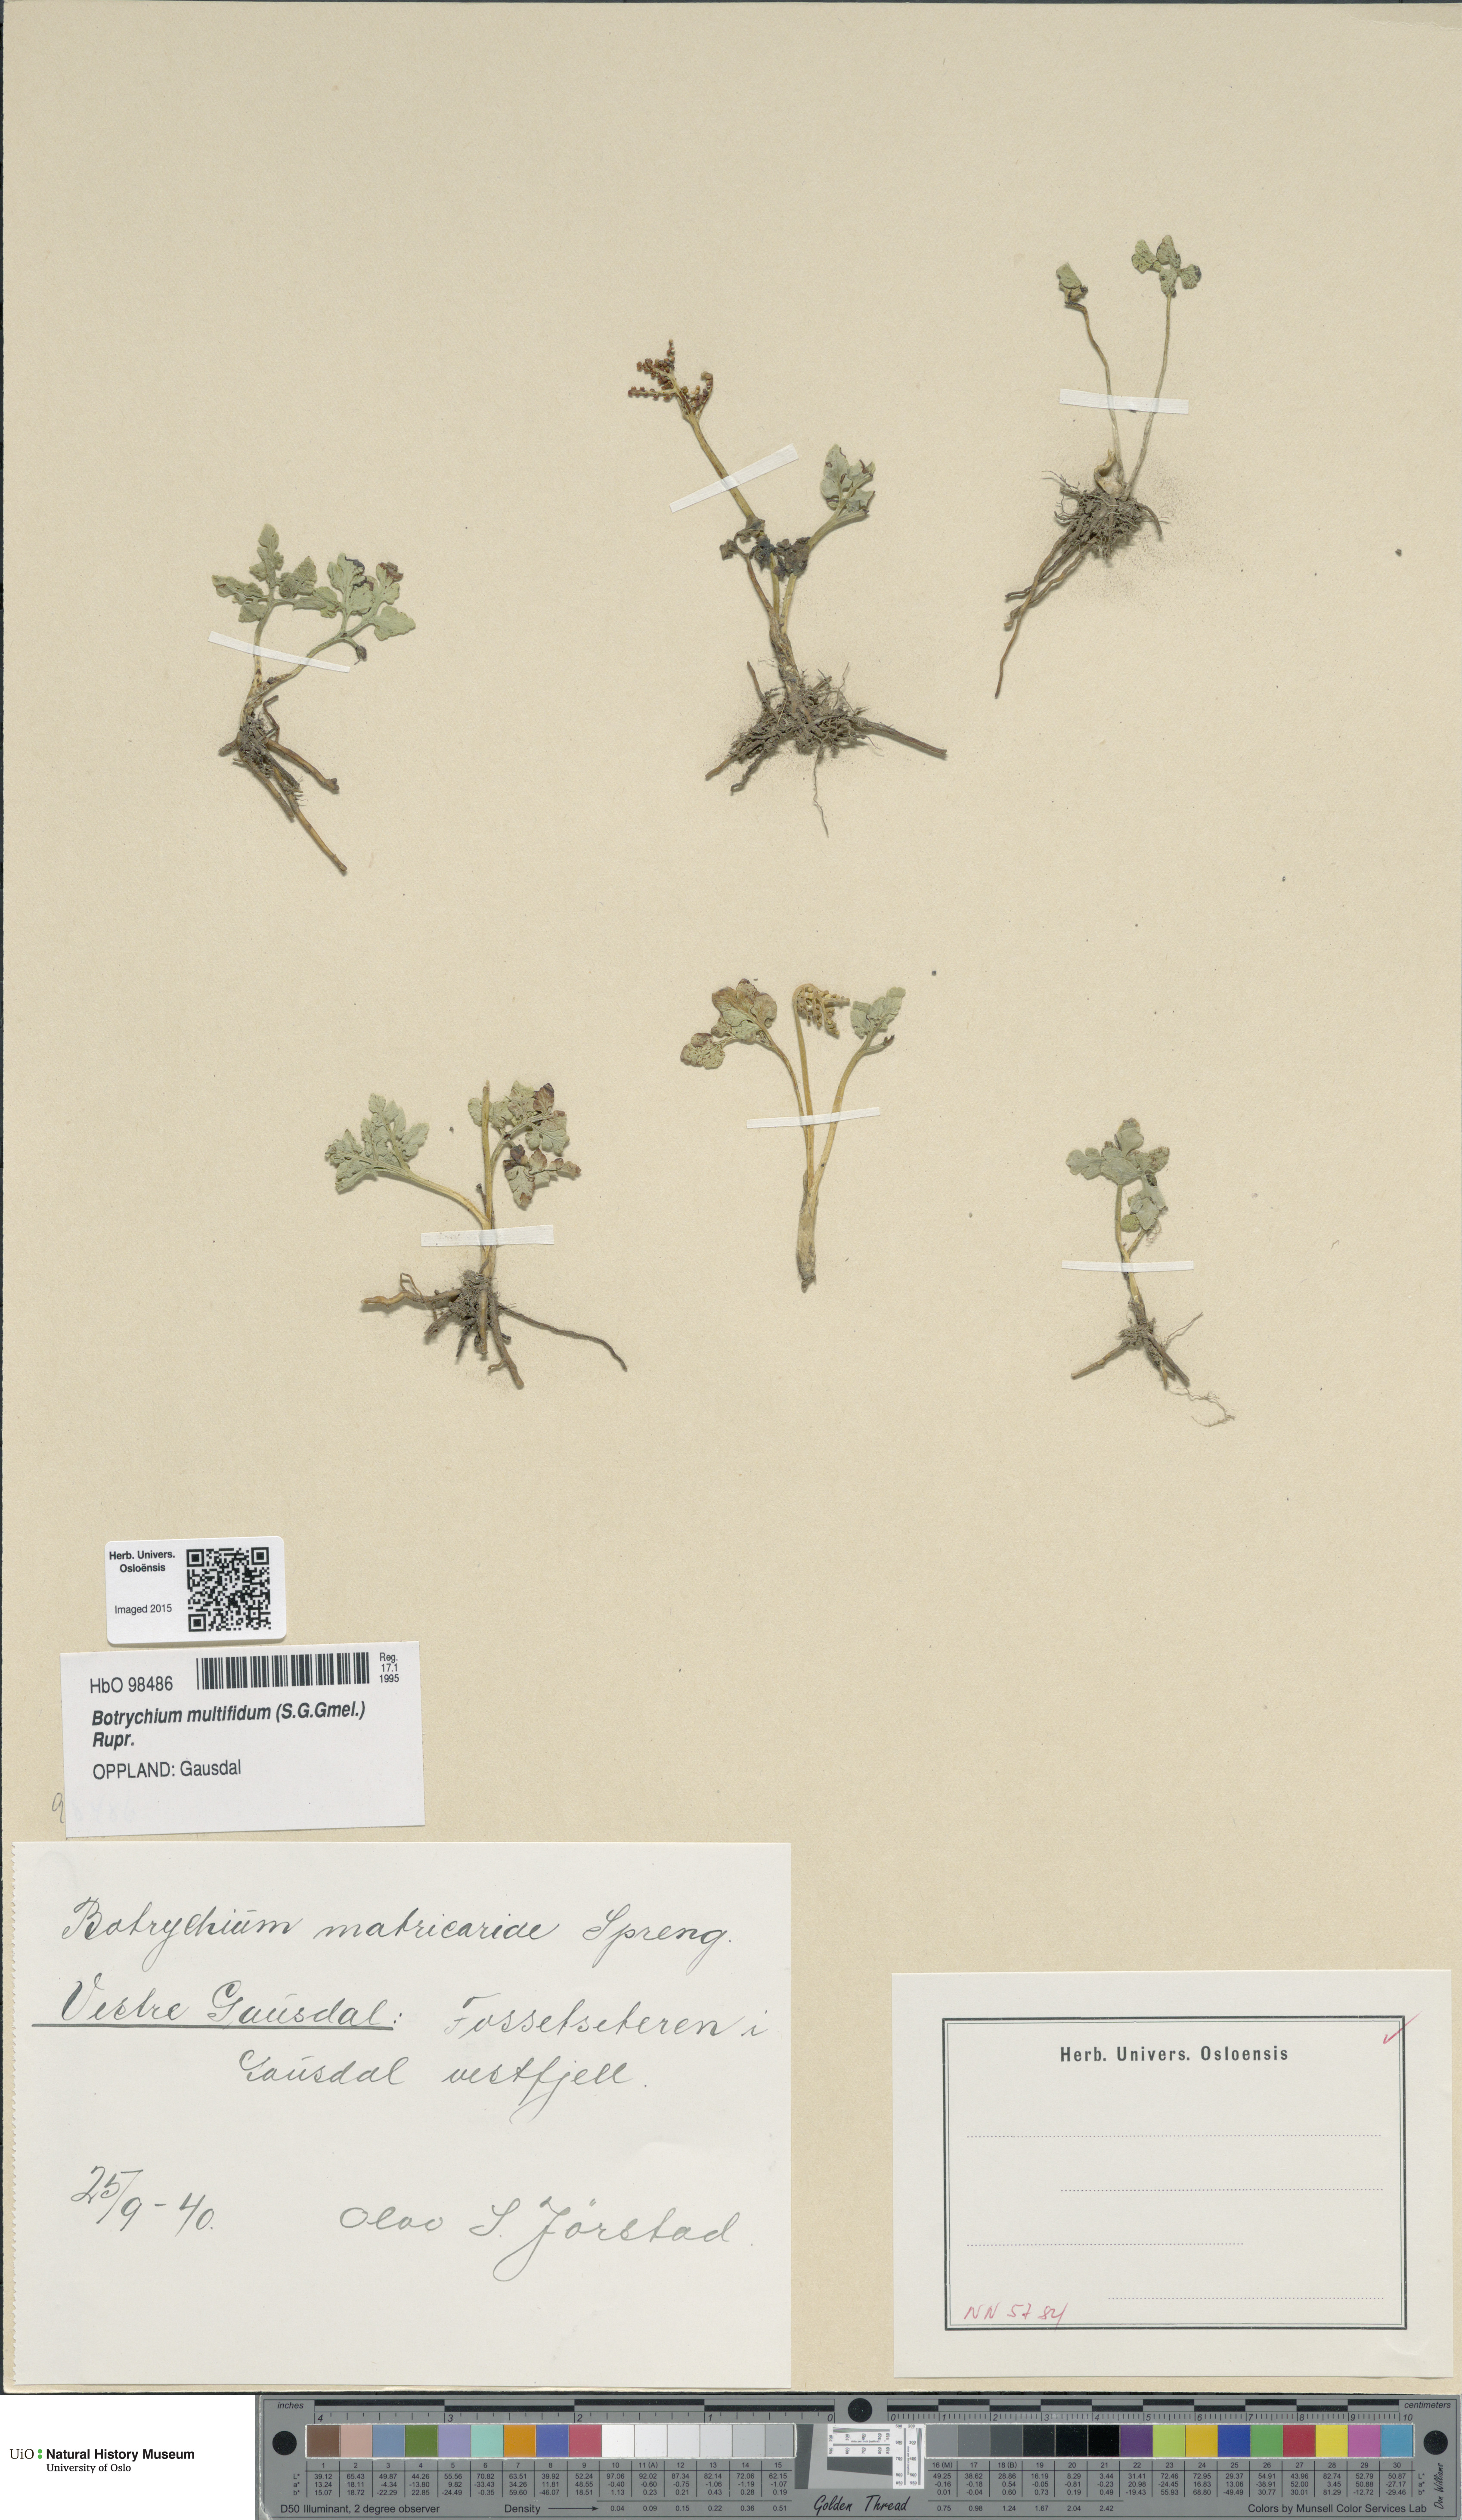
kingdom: Plantae
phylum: Tracheophyta
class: Polypodiopsida
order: Ophioglossales
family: Ophioglossaceae
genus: Sceptridium
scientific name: Sceptridium multifidum
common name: Leathery grape fern
